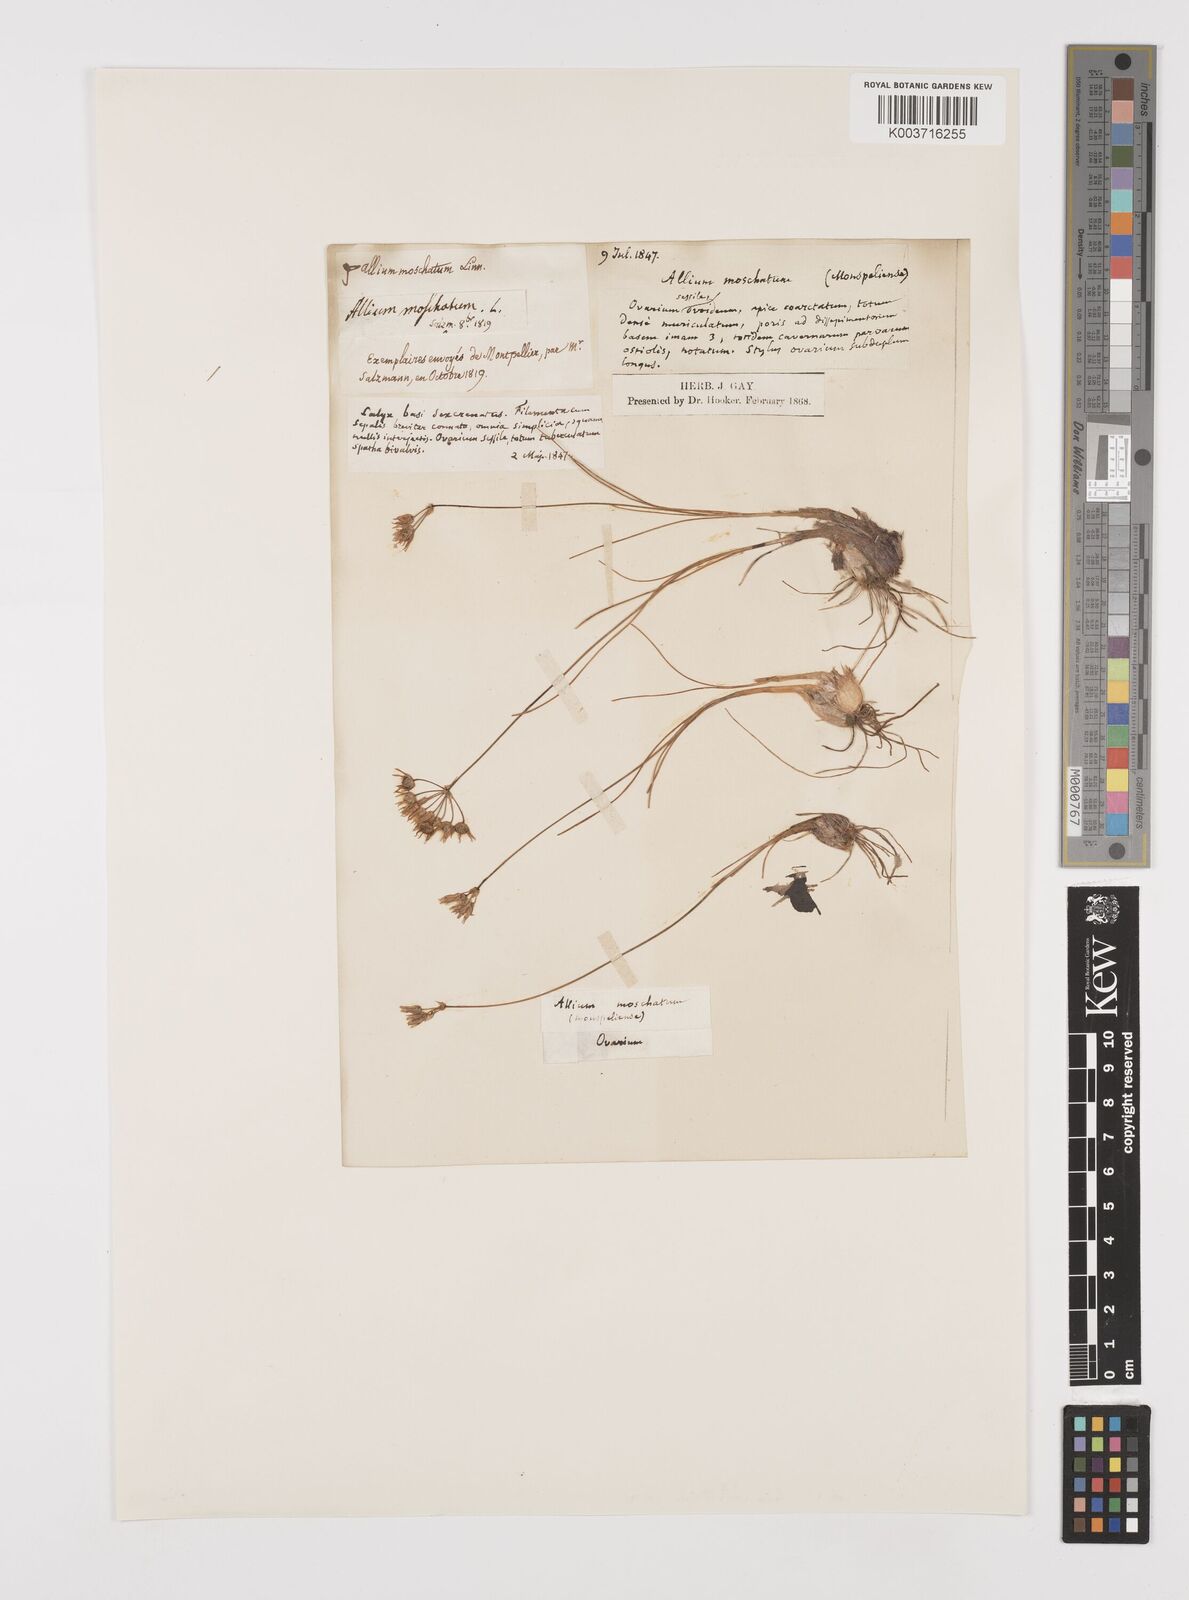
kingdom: Plantae
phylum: Tracheophyta
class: Liliopsida
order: Asparagales
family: Amaryllidaceae
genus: Allium
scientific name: Allium moschatum
